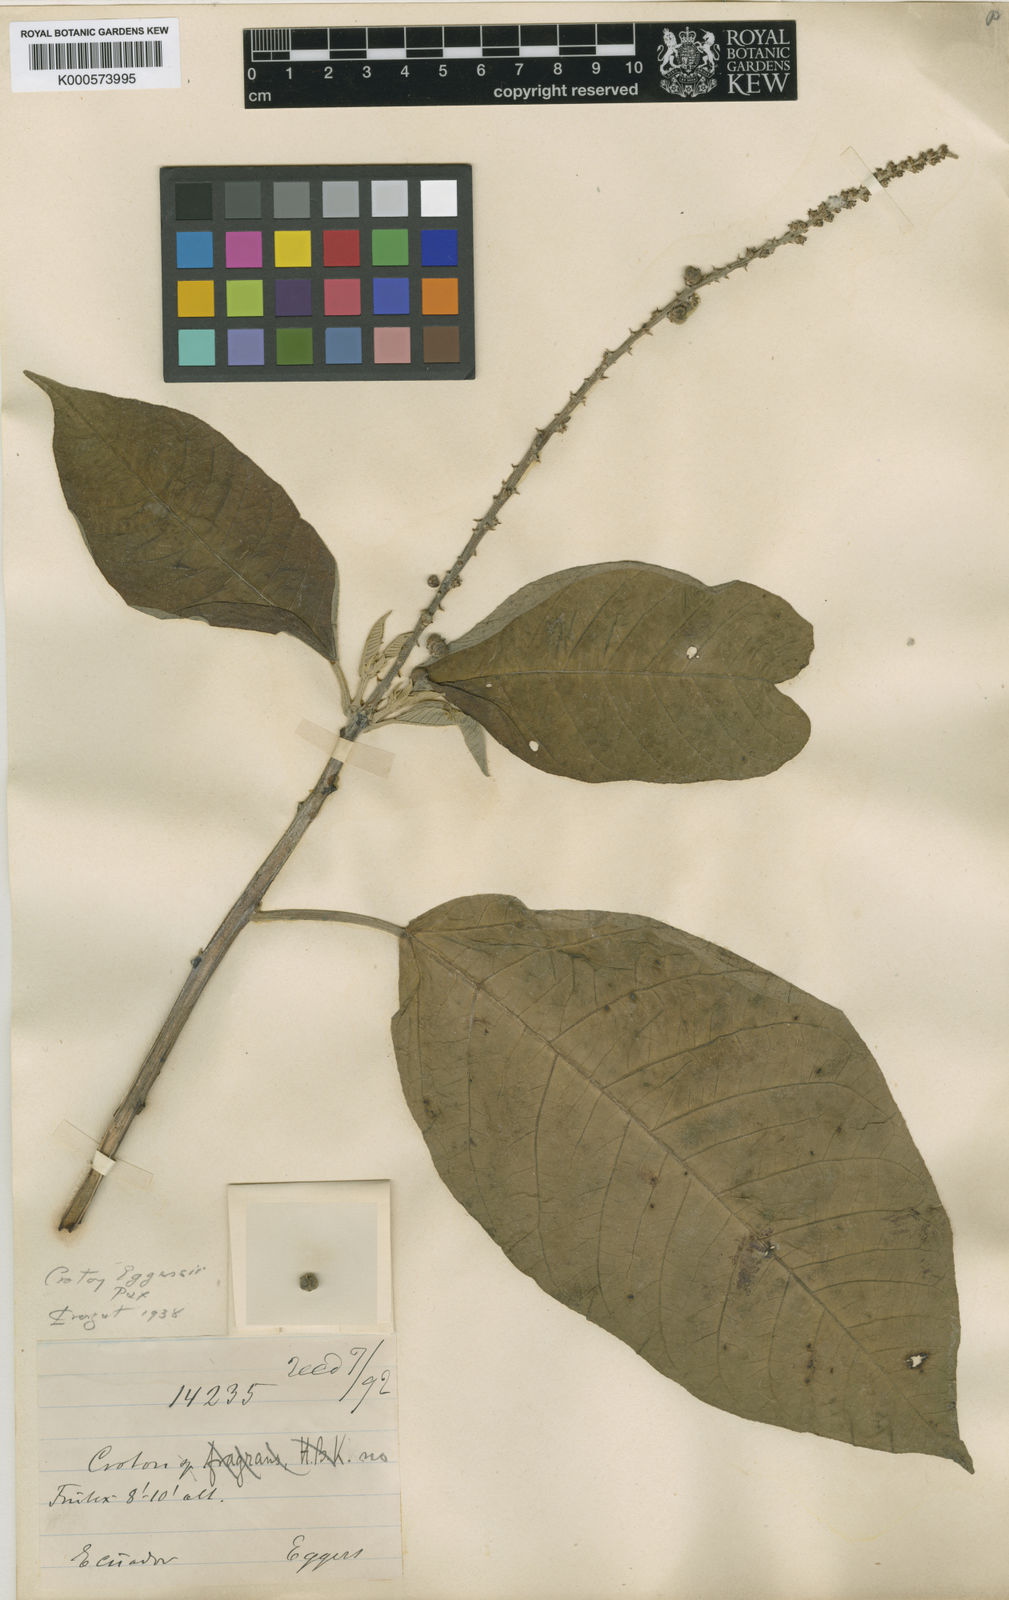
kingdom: Plantae
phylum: Tracheophyta
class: Magnoliopsida
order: Malpighiales
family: Euphorbiaceae
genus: Croton
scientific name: Croton eggersii
